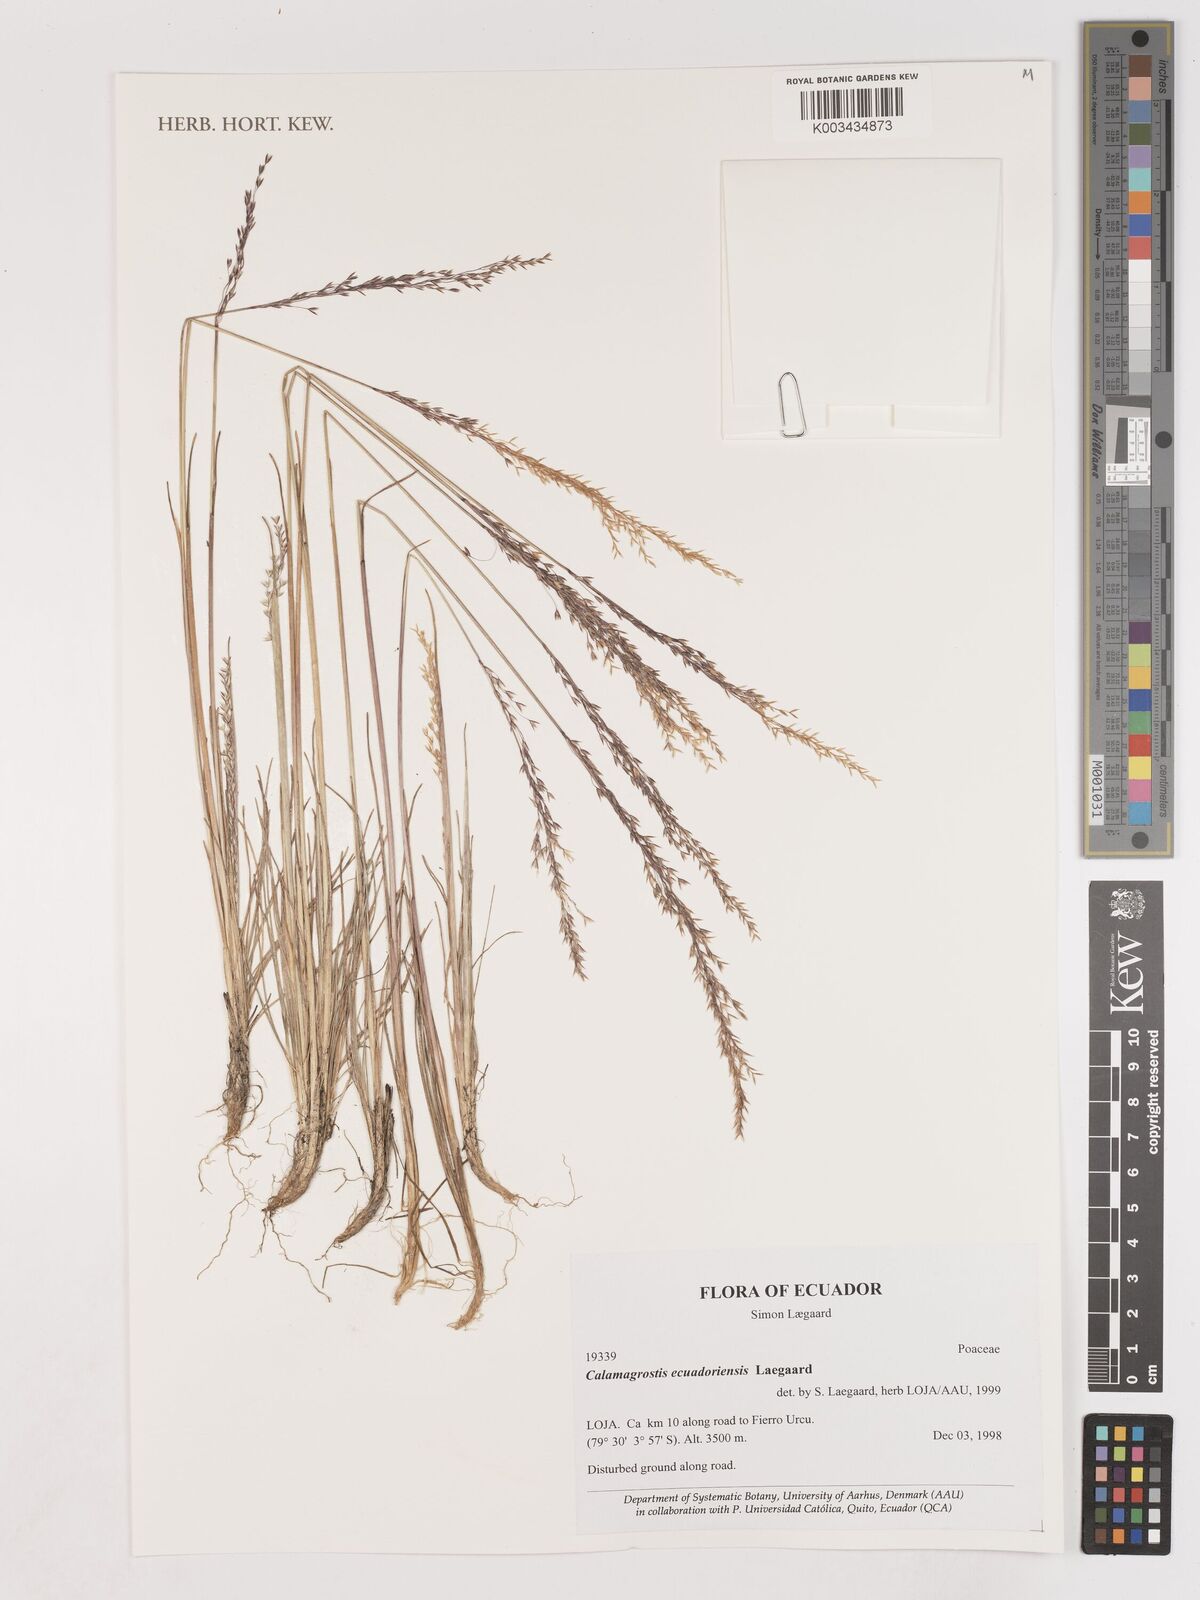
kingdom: Plantae
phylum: Tracheophyta
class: Liliopsida
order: Poales
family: Poaceae
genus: Calamagrostis
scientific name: Calamagrostis
